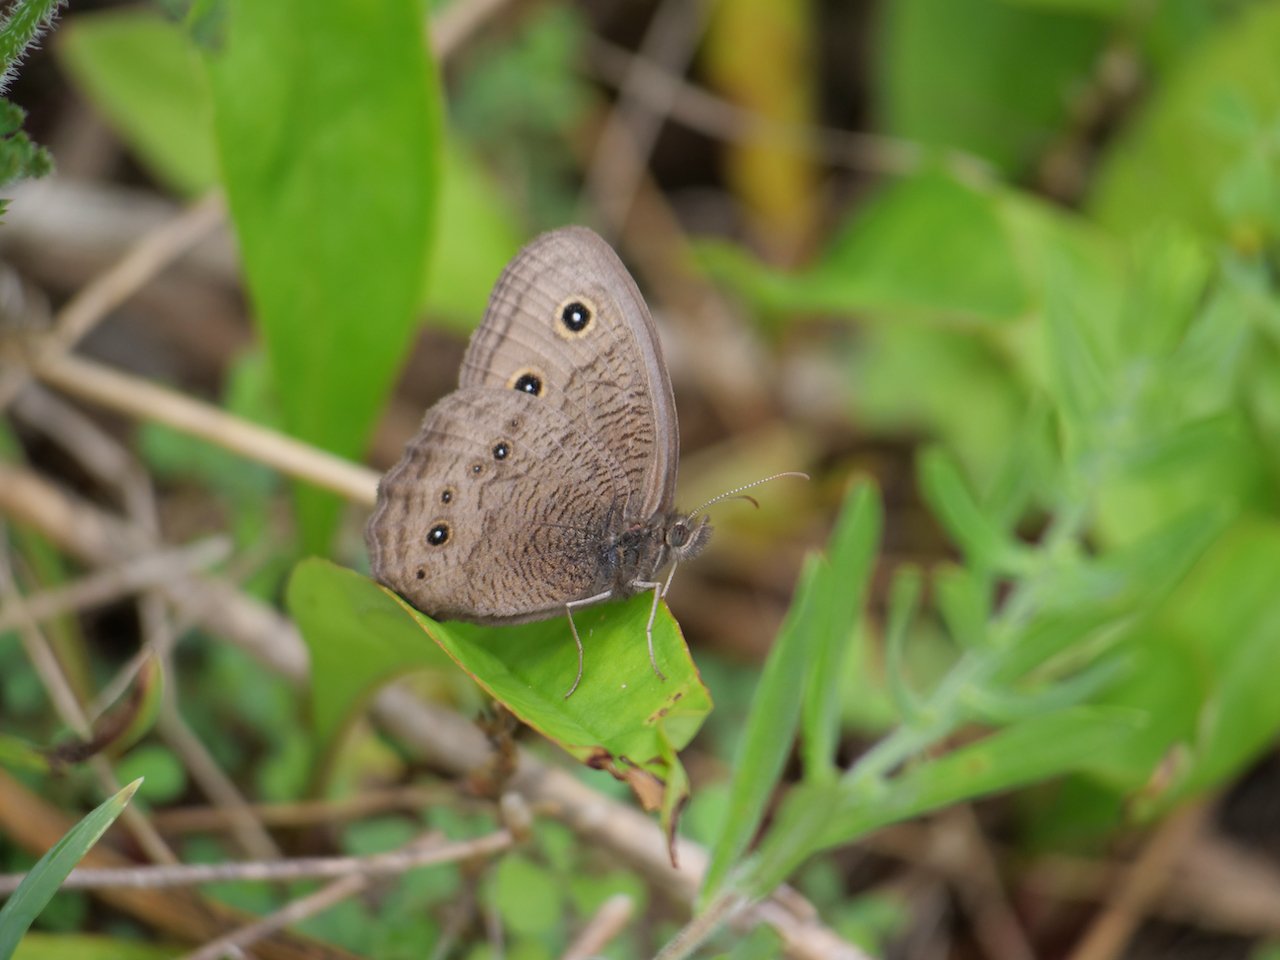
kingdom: Animalia
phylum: Arthropoda
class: Insecta
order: Lepidoptera
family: Nymphalidae
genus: Cercyonis
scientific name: Cercyonis pegala
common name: Common Wood-Nymph
